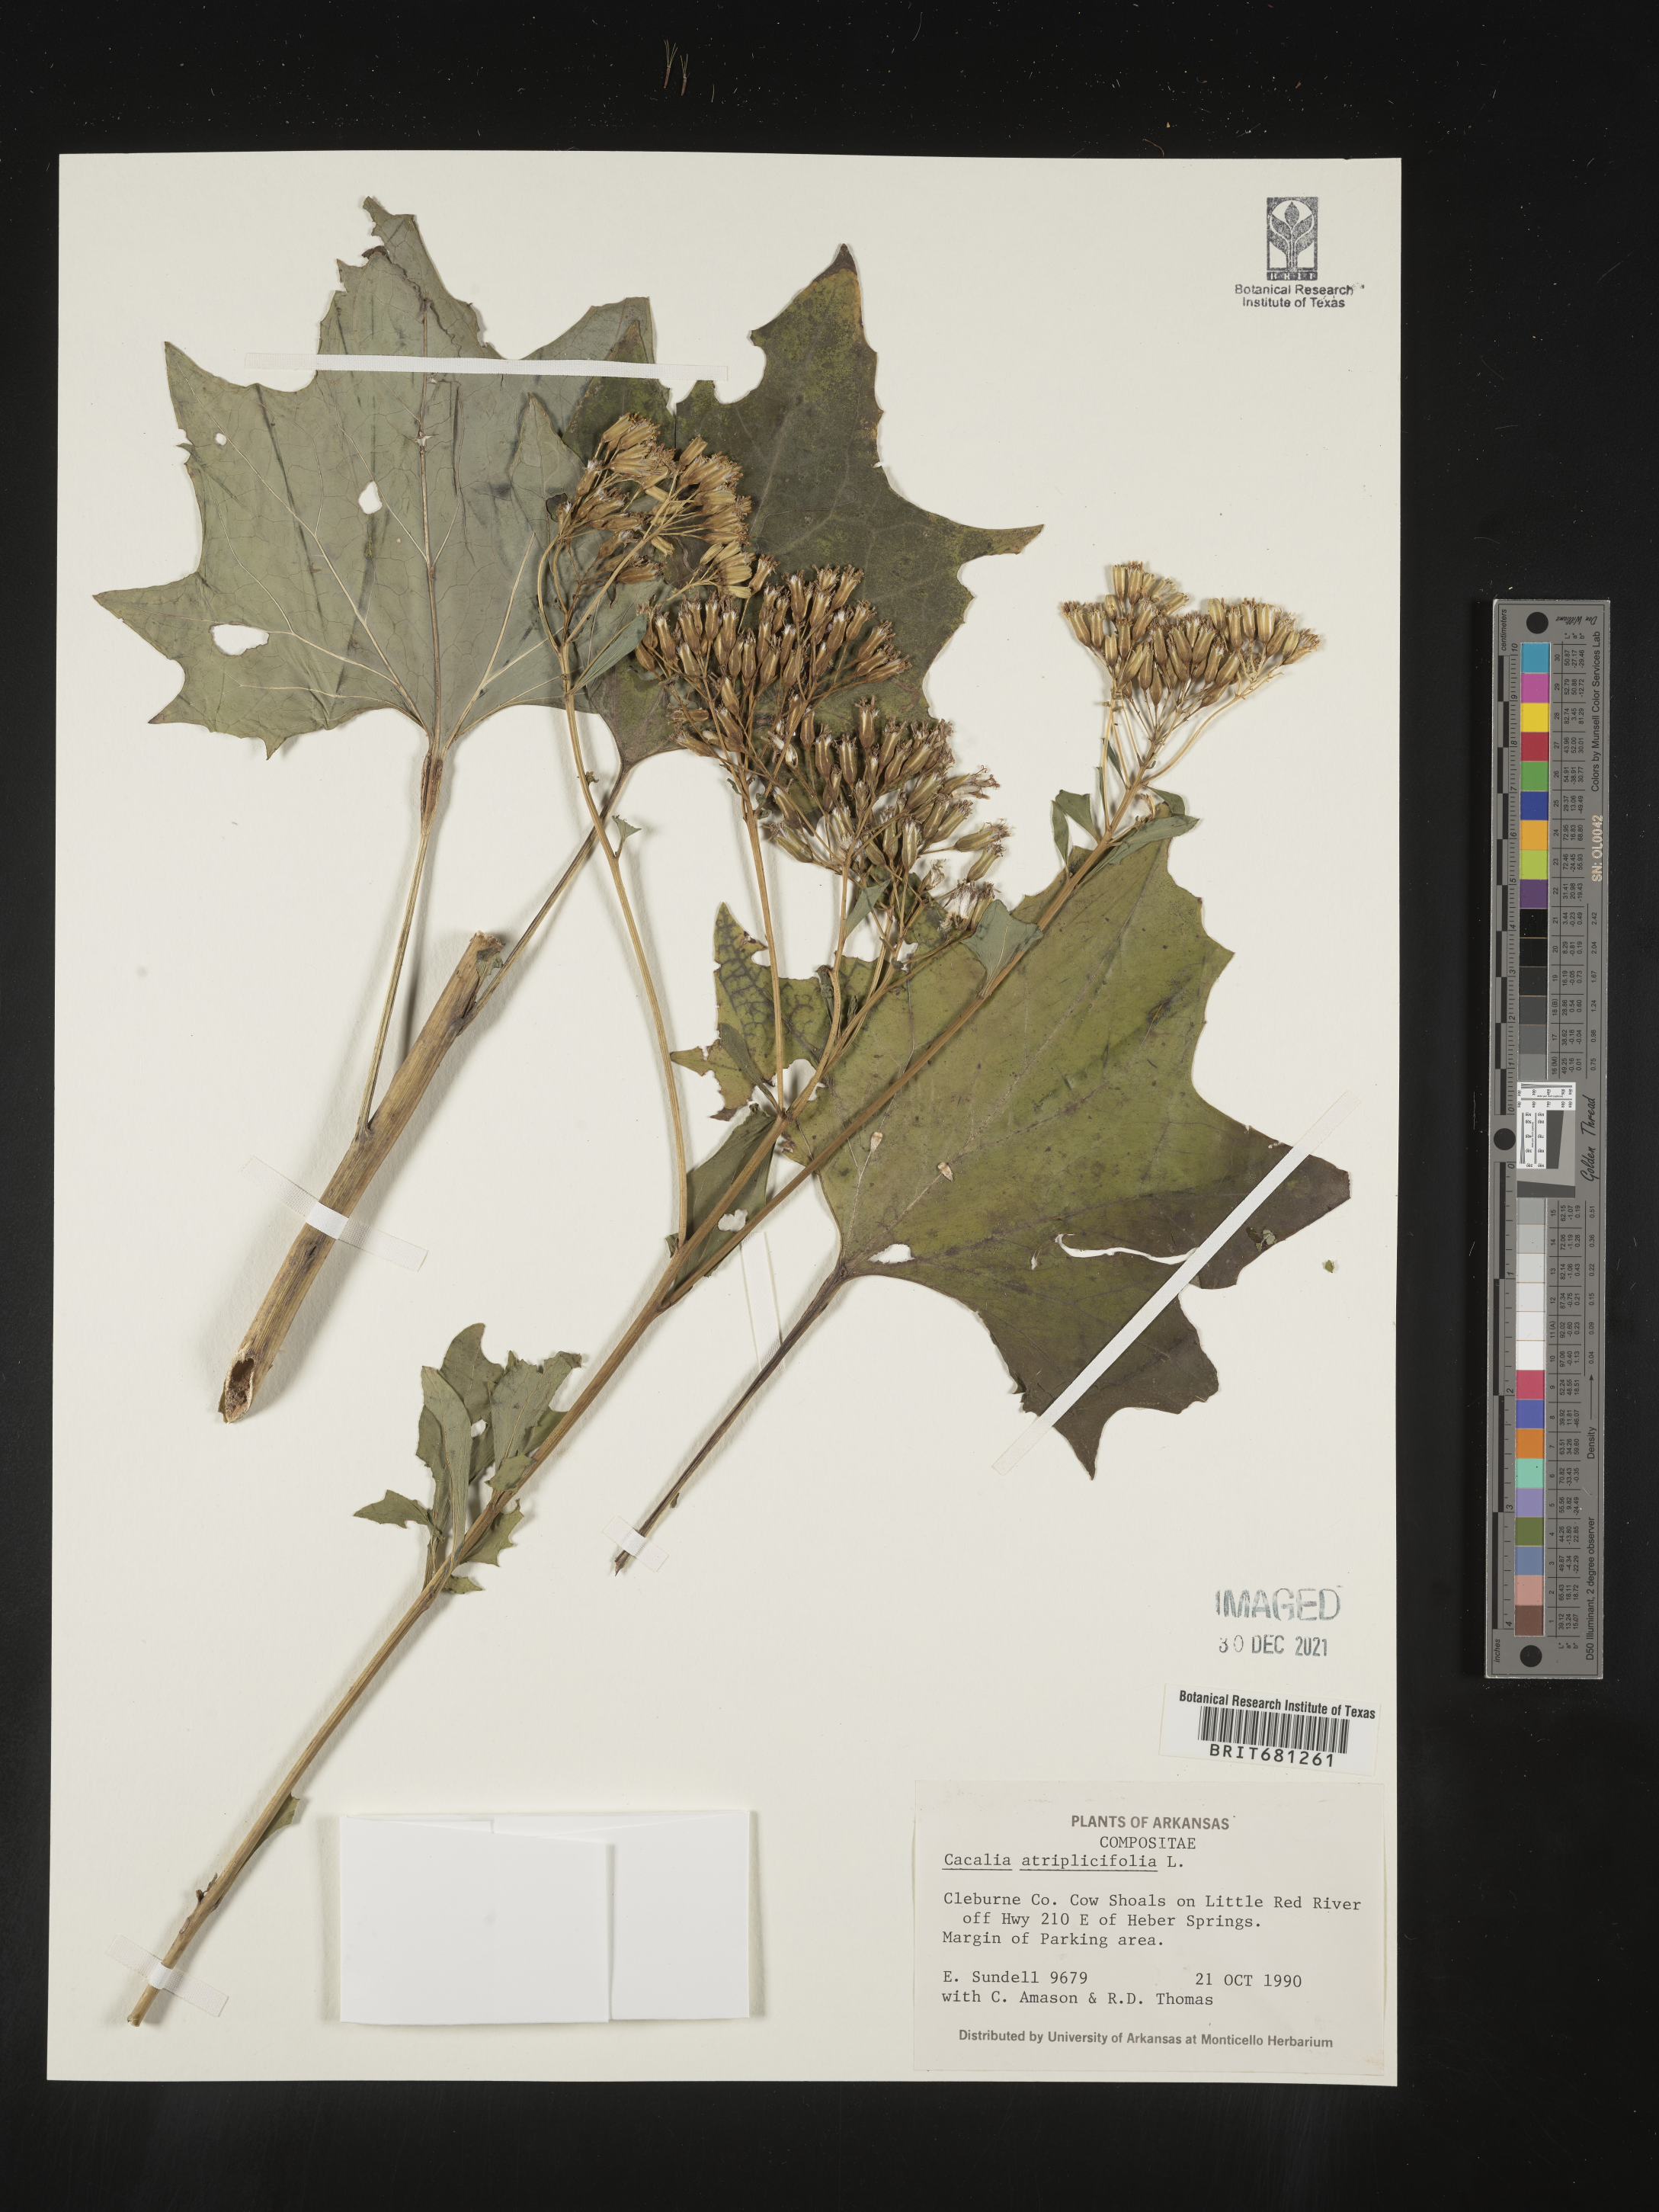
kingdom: Plantae
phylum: Tracheophyta
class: Magnoliopsida
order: Asterales
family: Asteraceae
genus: Arnoglossum
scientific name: Arnoglossum atriplicifolium
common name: Pale indian-plantain
